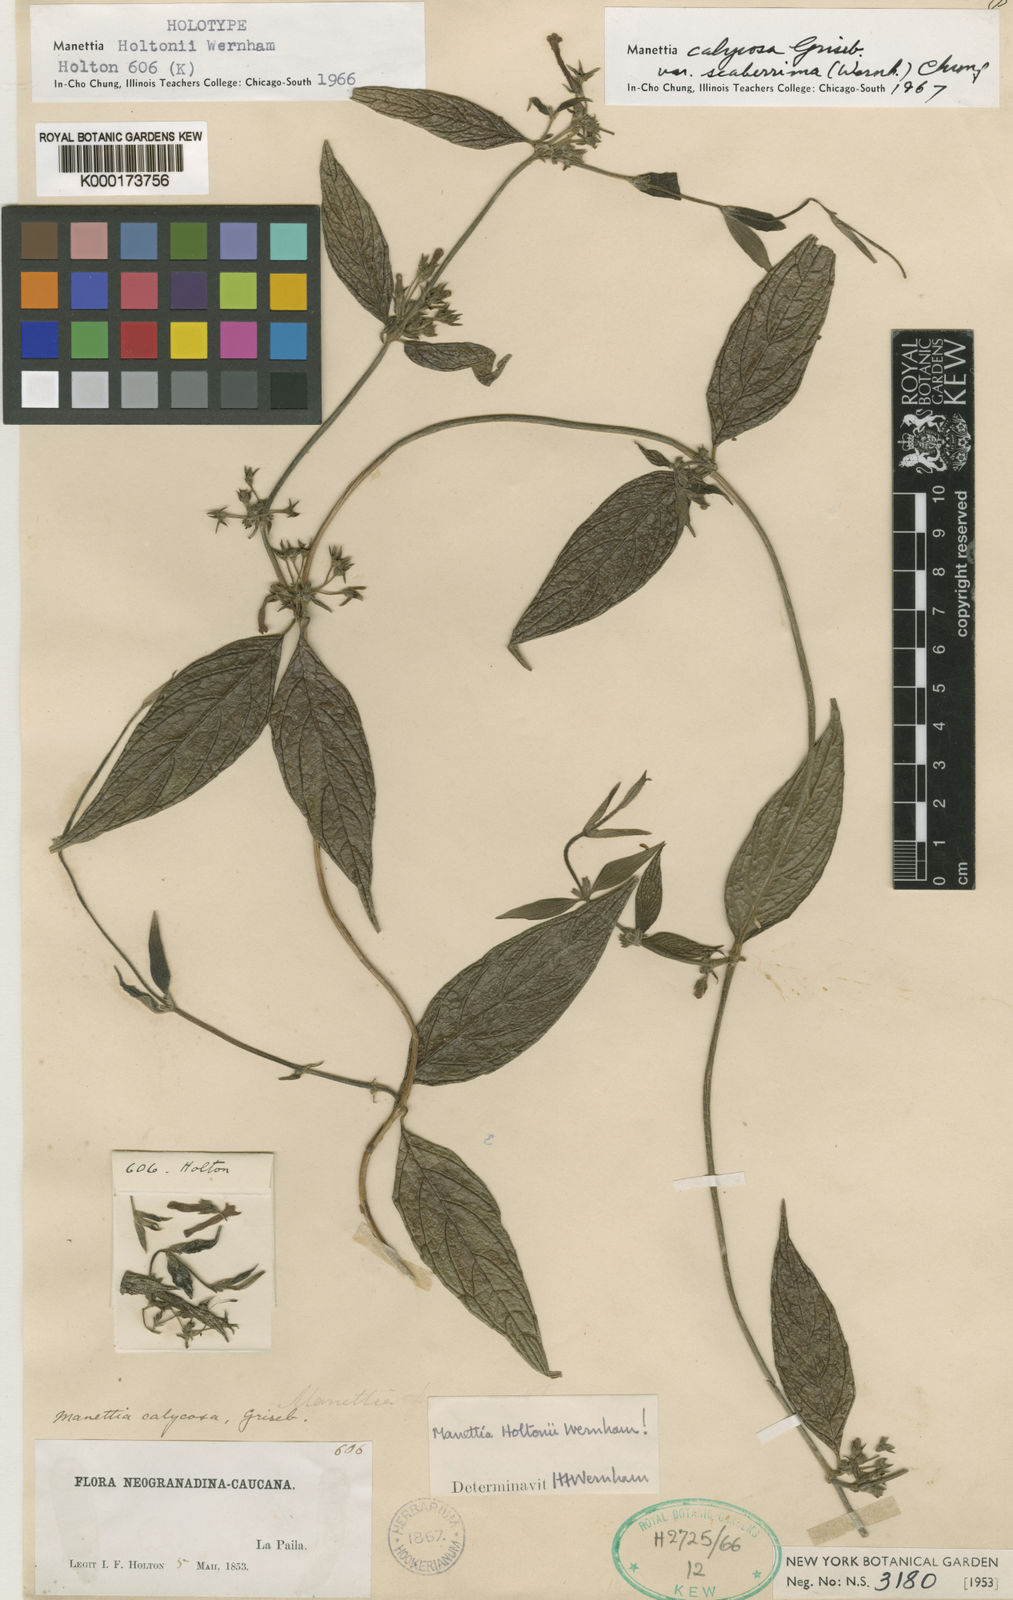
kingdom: Plantae
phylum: Tracheophyta
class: Magnoliopsida
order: Gentianales
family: Rubiaceae
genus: Manettia
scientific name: Manettia calycosa
